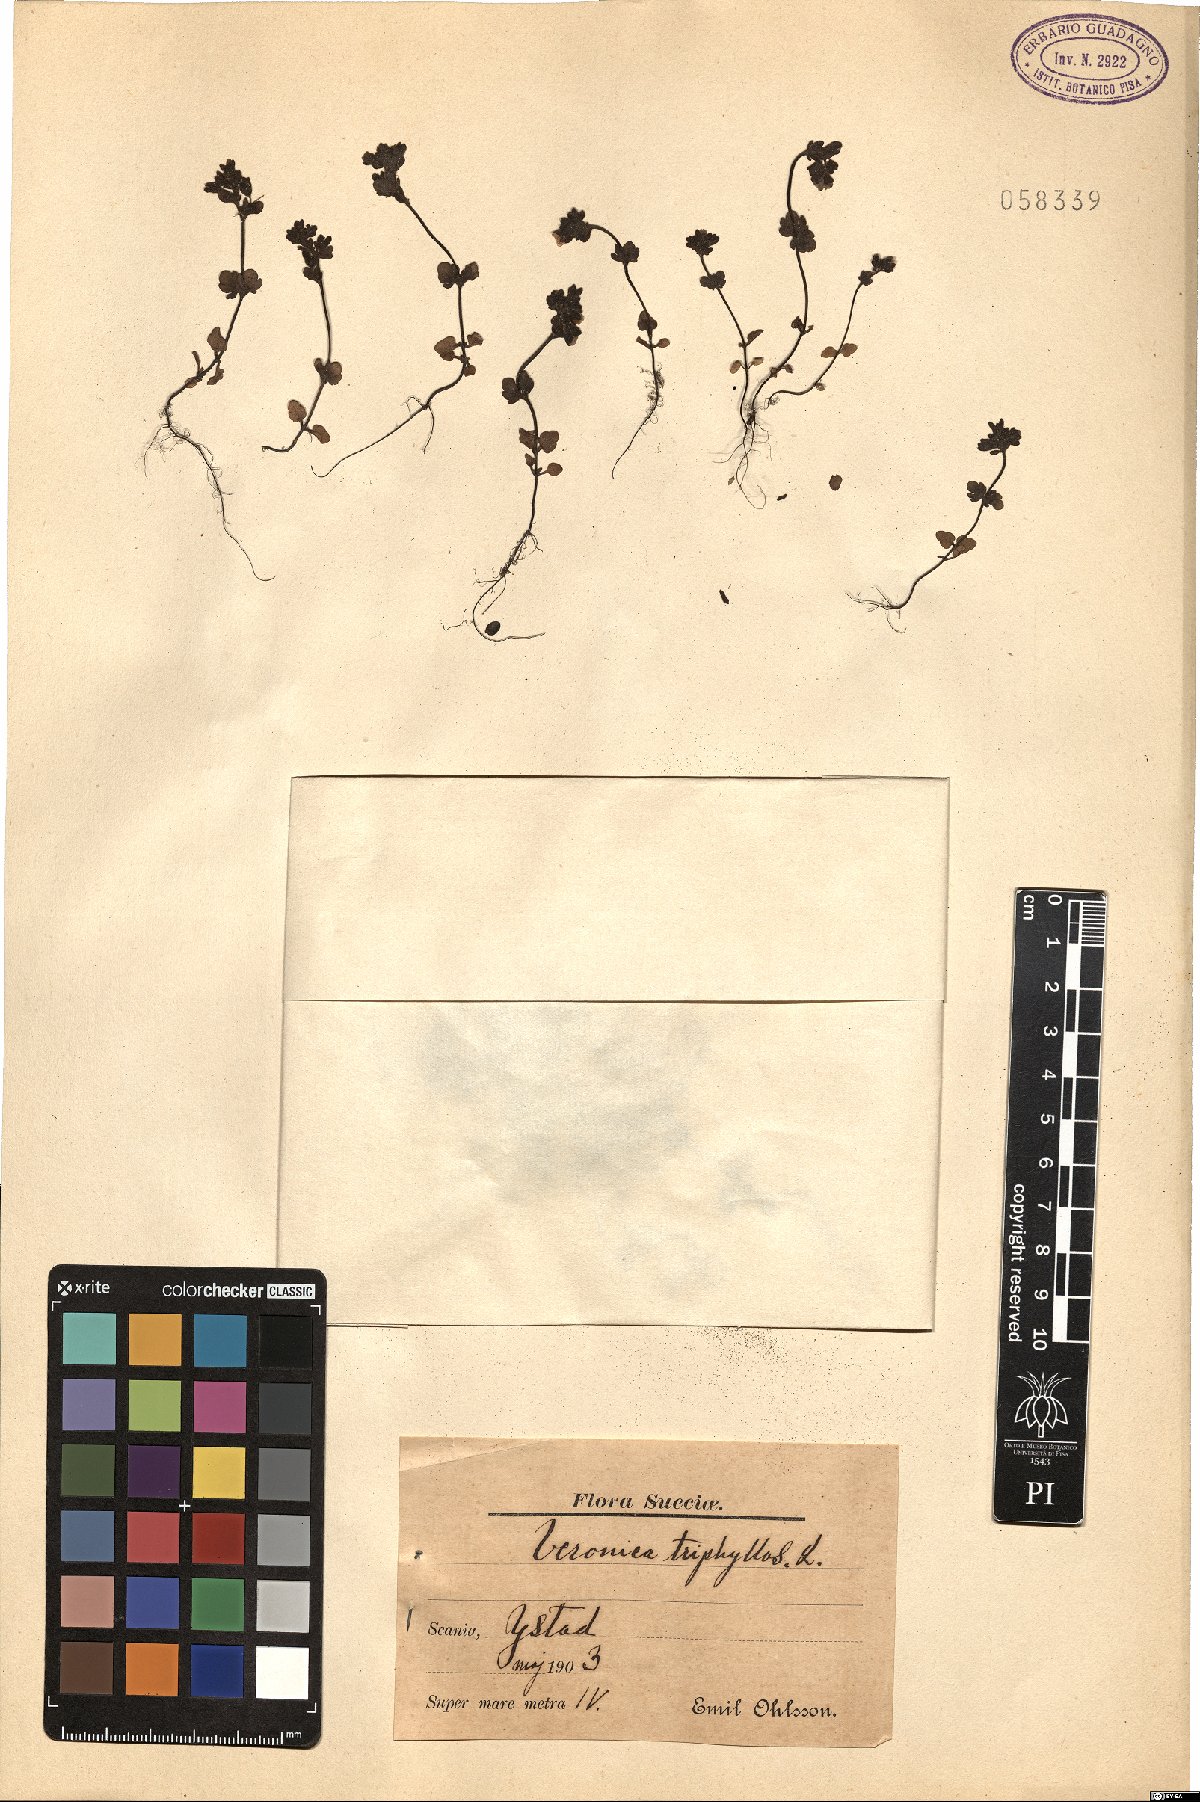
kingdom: Plantae
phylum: Tracheophyta
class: Magnoliopsida
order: Lamiales
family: Plantaginaceae
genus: Veronica
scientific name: Veronica triphyllos
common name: Fingered speedwell
